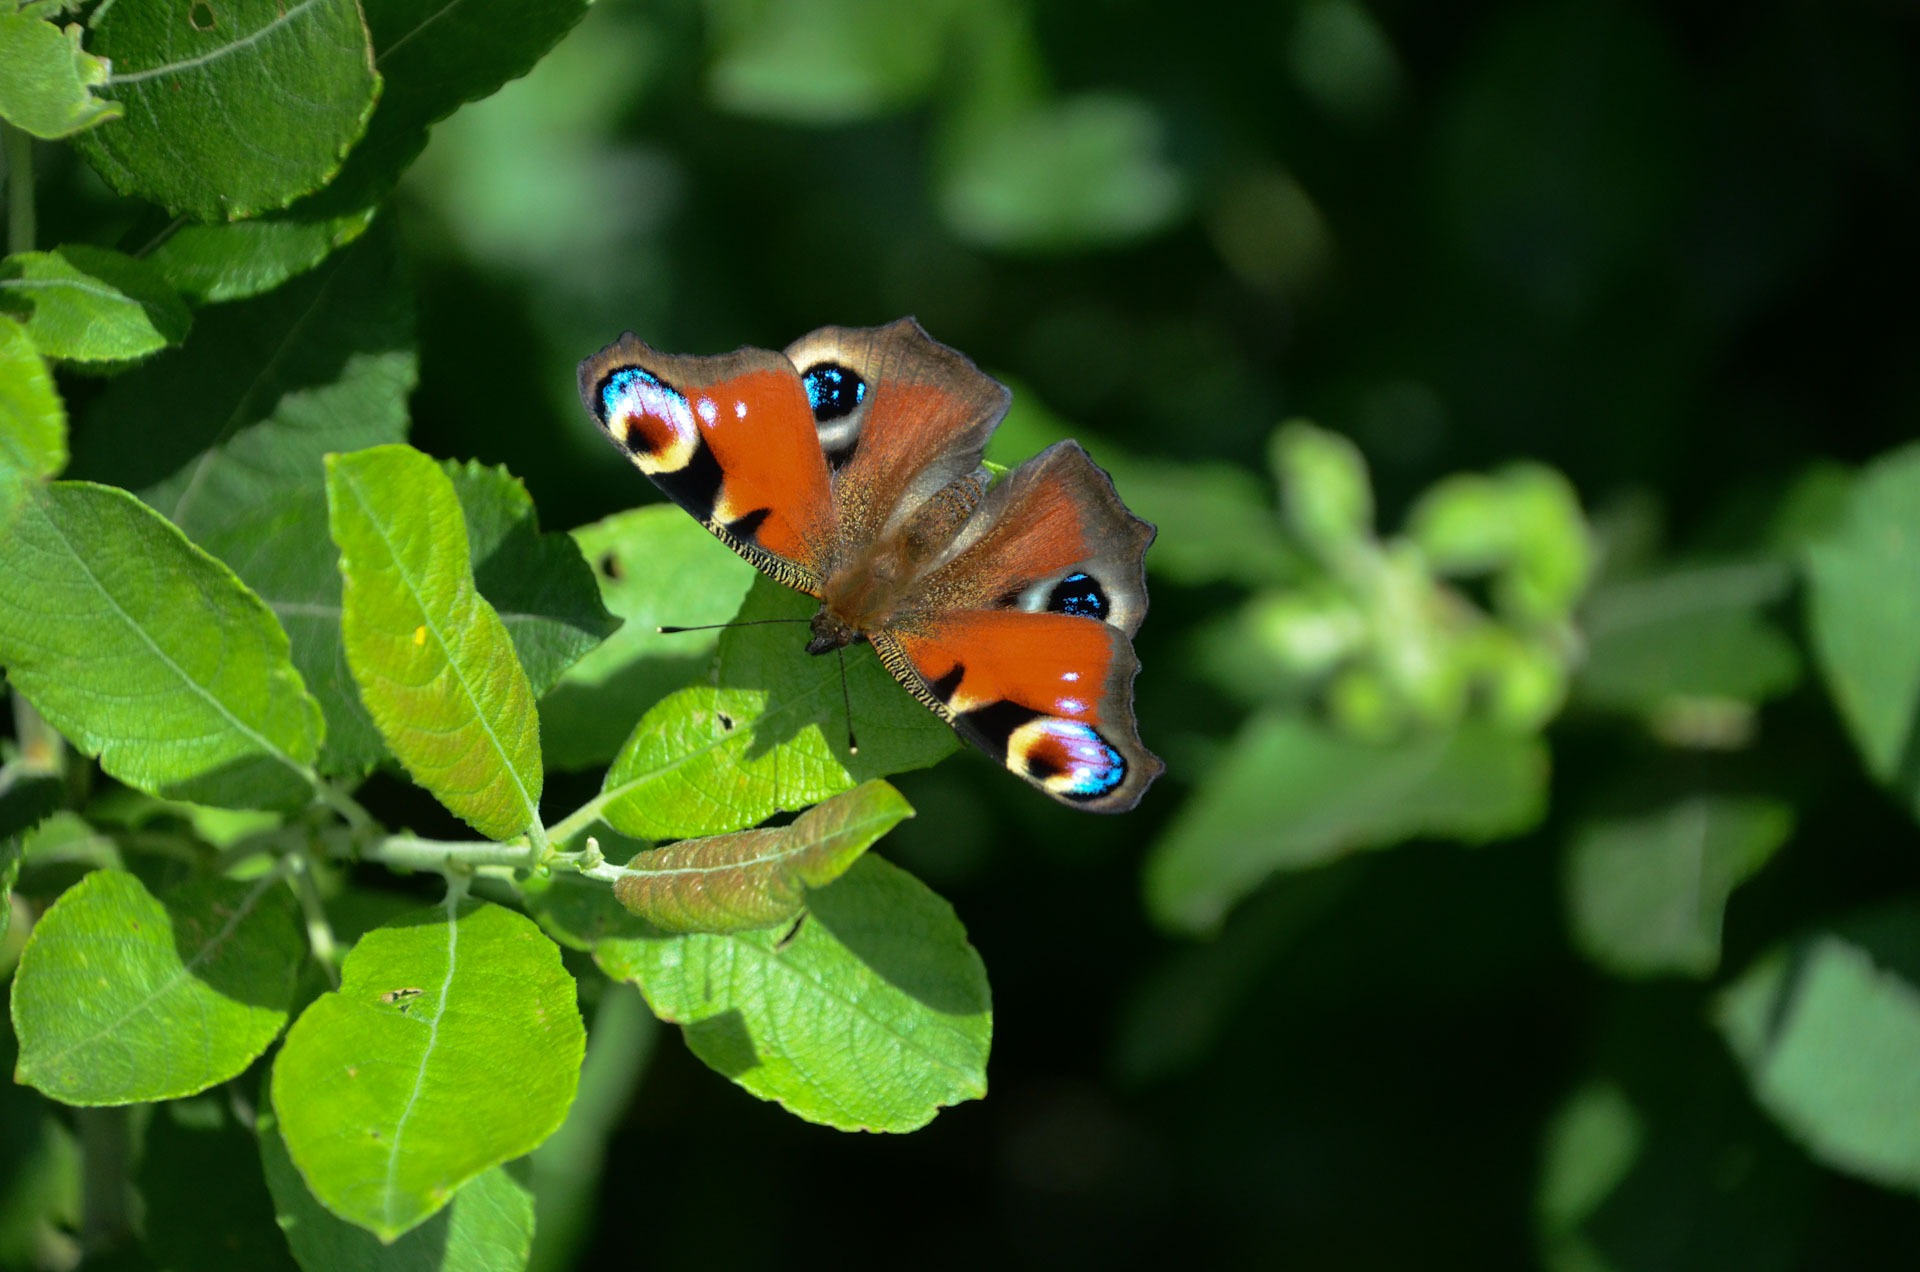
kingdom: Animalia
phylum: Arthropoda
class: Insecta
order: Lepidoptera
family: Nymphalidae
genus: Aglais
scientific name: Aglais io
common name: Dagpåfugleøje
